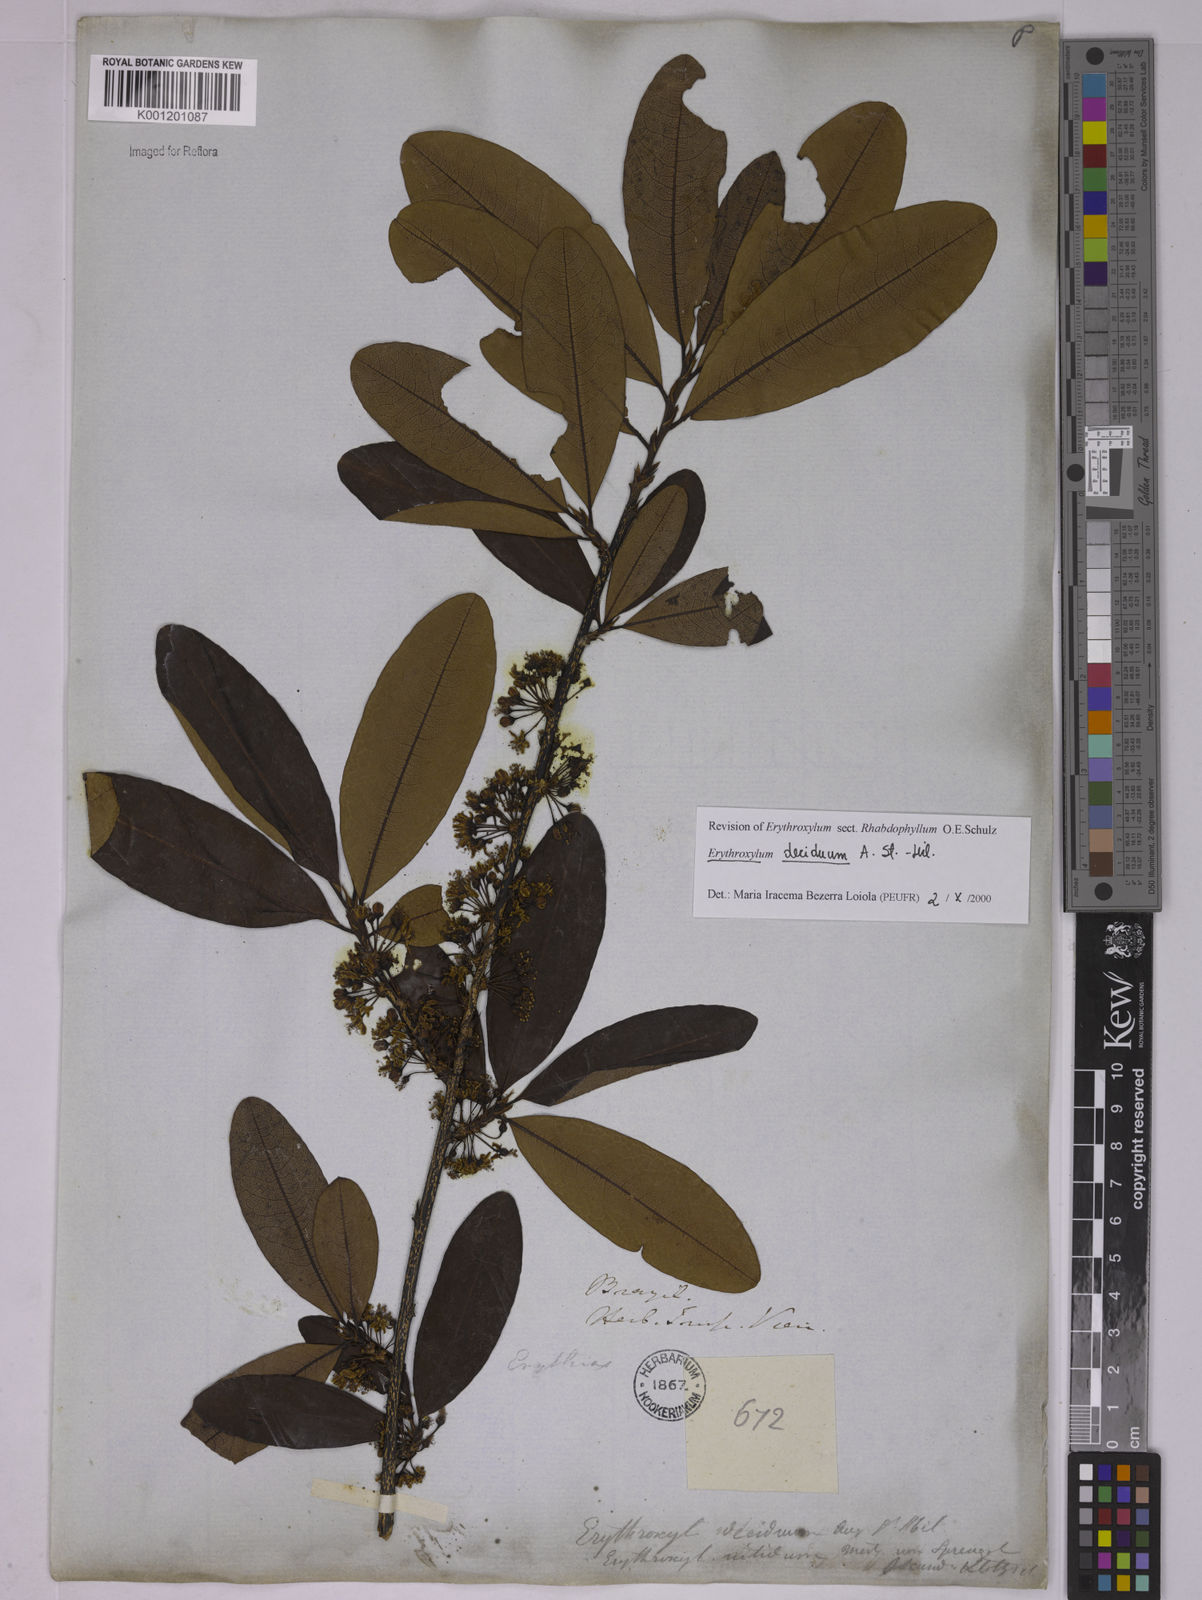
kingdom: Plantae
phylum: Tracheophyta
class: Magnoliopsida
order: Malpighiales
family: Erythroxylaceae
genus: Erythroxylum
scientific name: Erythroxylum deciduum
